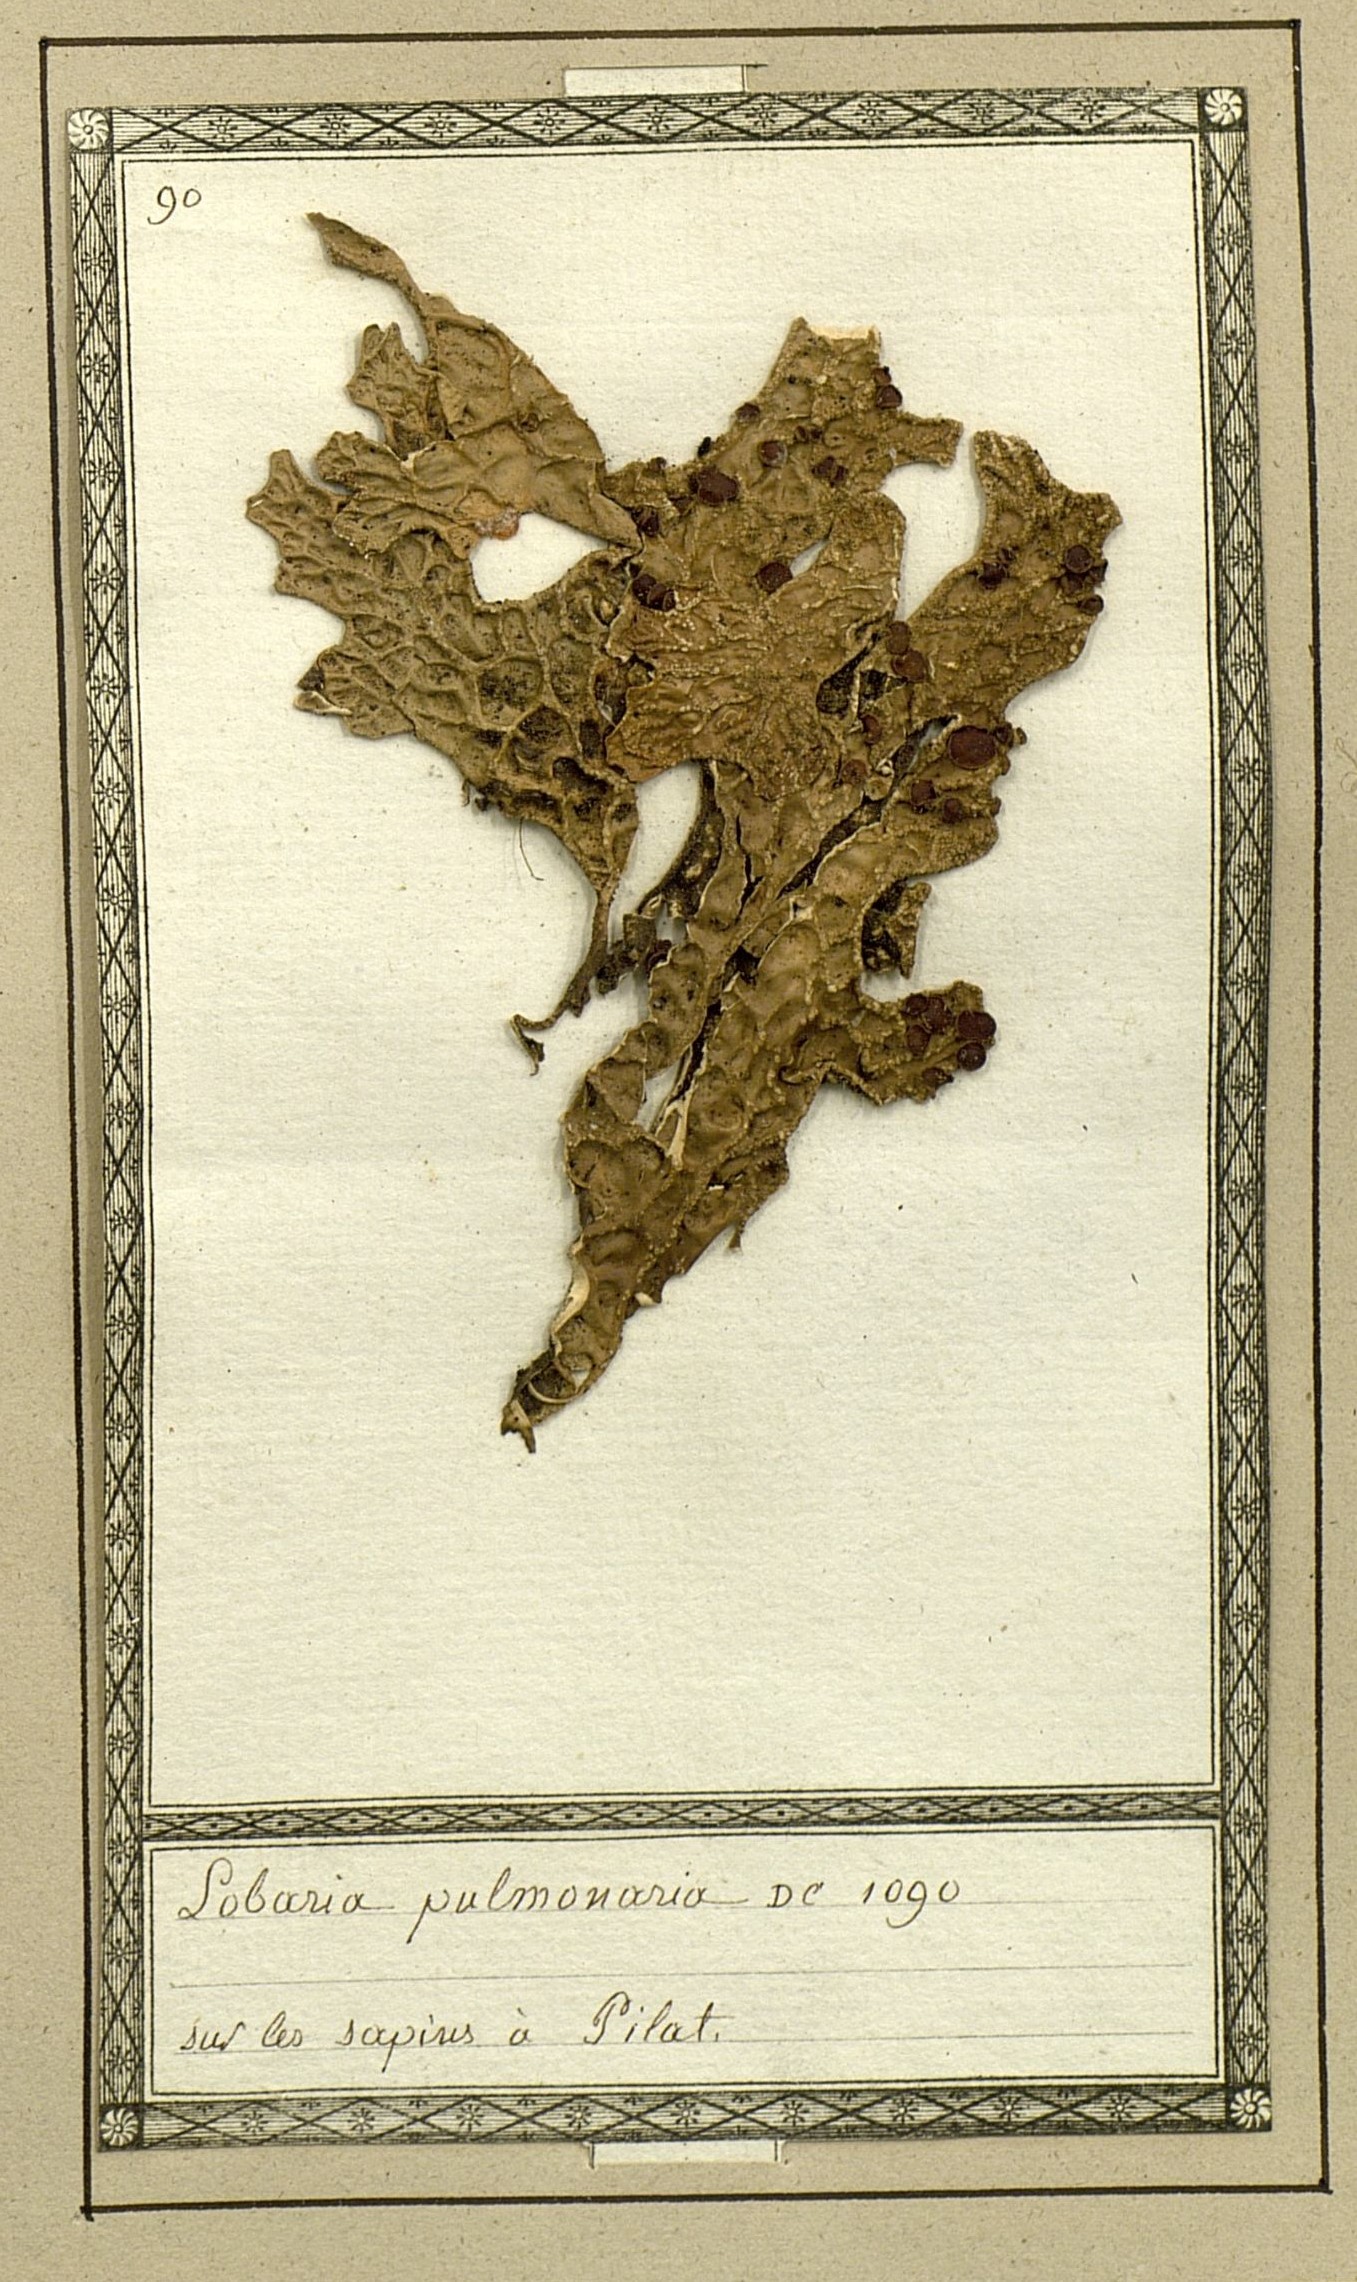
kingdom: Fungi
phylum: Ascomycota
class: Lecanoromycetes
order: Peltigerales
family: Lobariaceae
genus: Lobaria
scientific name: Lobaria pulmonaria
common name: Lungwort
